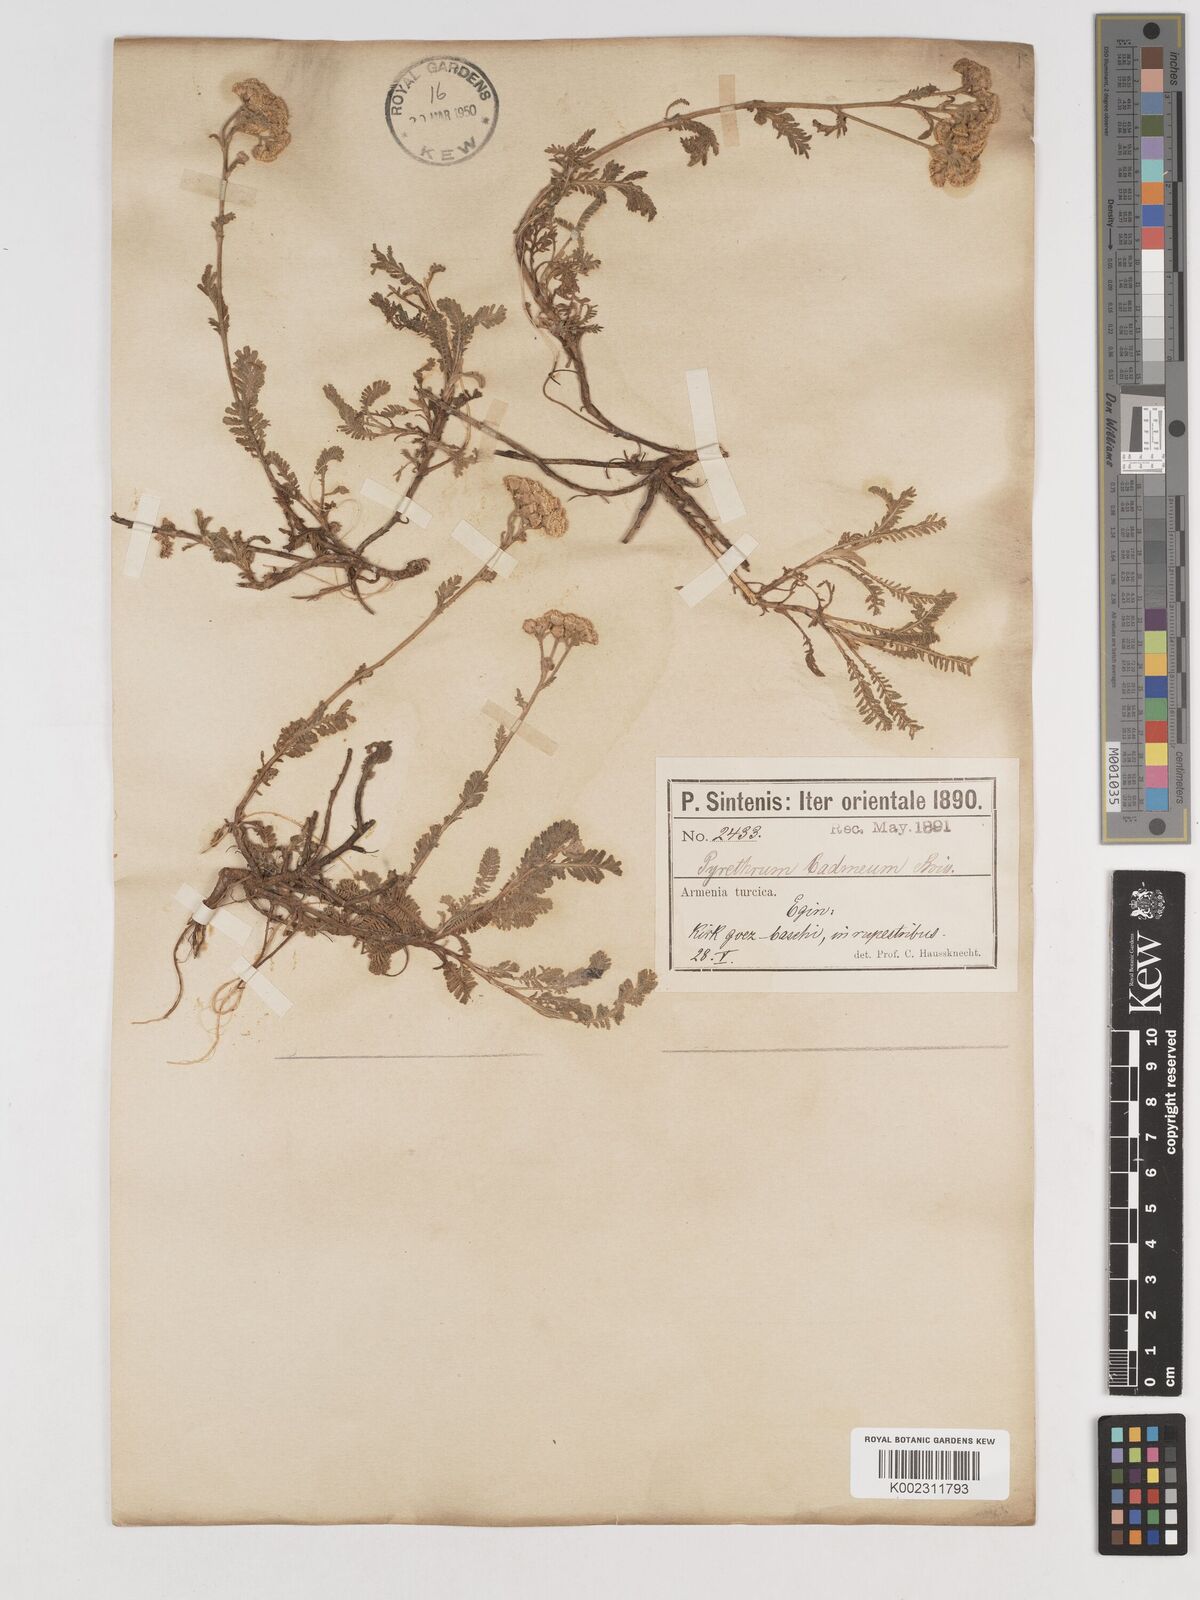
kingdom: Plantae
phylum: Tracheophyta
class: Magnoliopsida
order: Asterales
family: Asteraceae
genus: Tanacetum
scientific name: Tanacetum cadmeum
